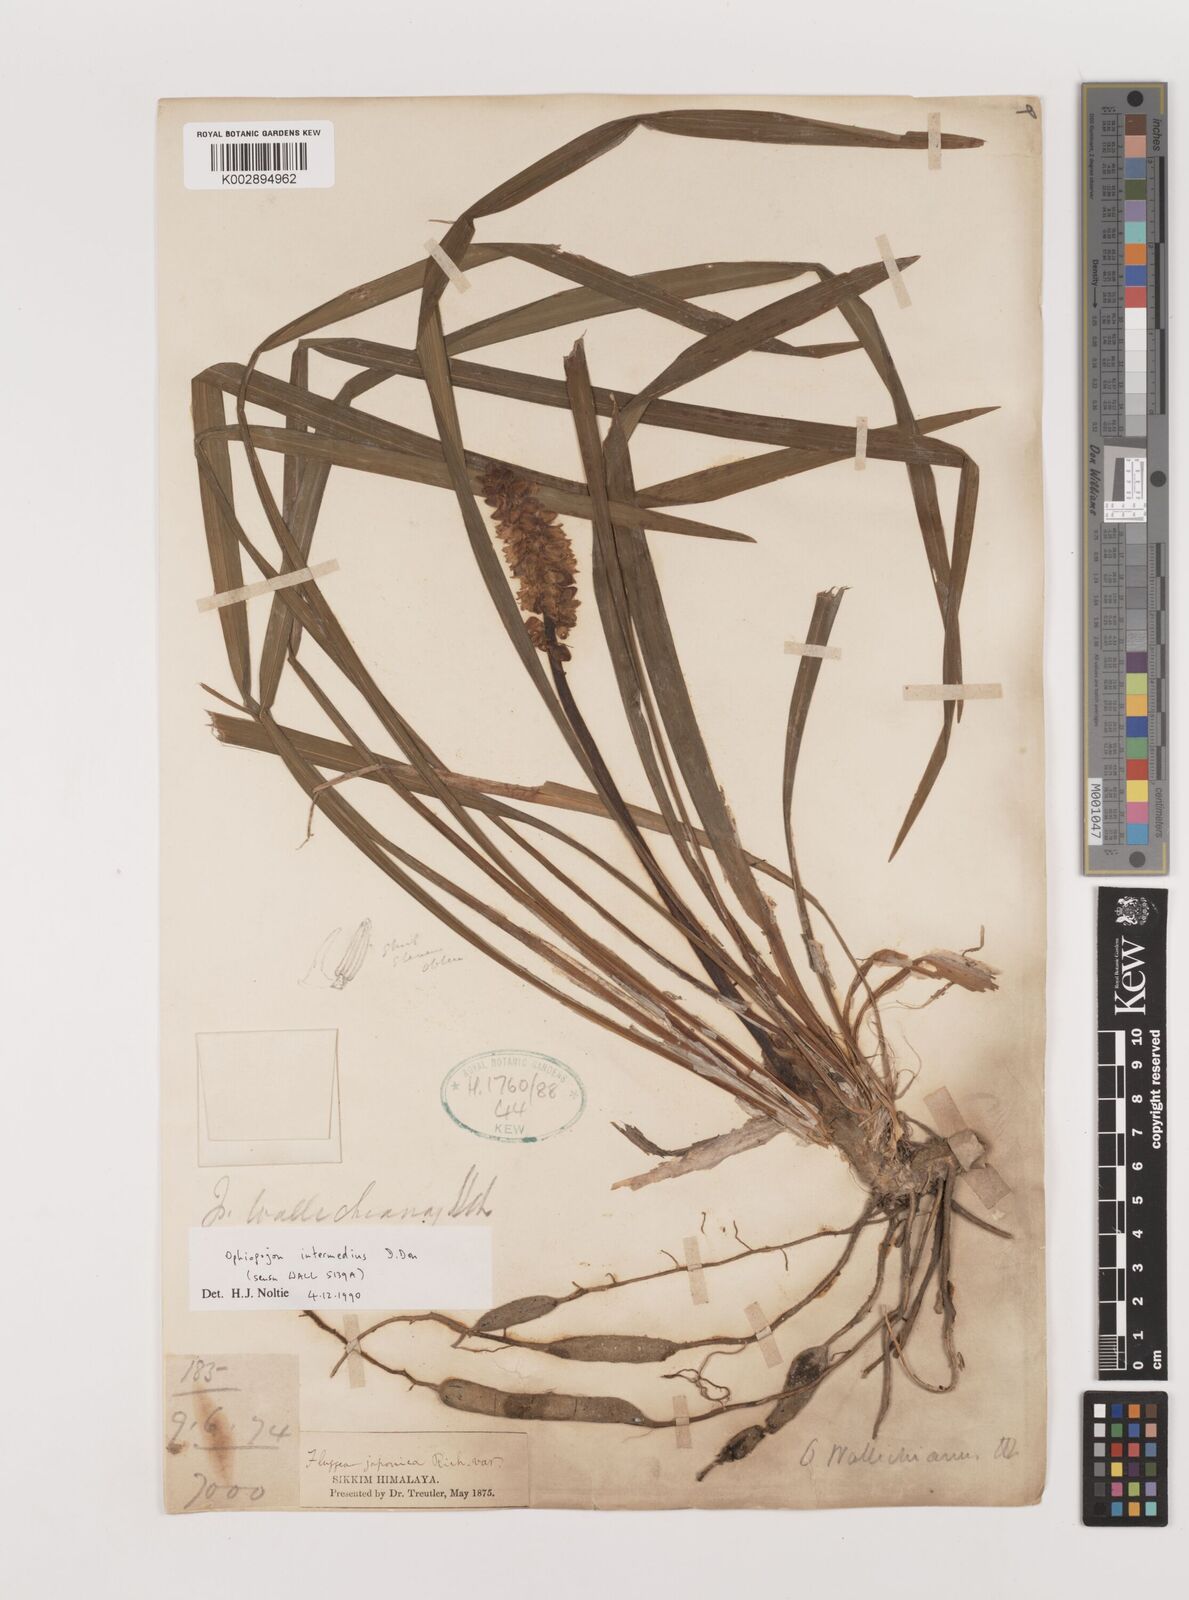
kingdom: Plantae
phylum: Tracheophyta
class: Liliopsida
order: Asparagales
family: Asparagaceae
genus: Ophiopogon
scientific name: Ophiopogon intermedius
